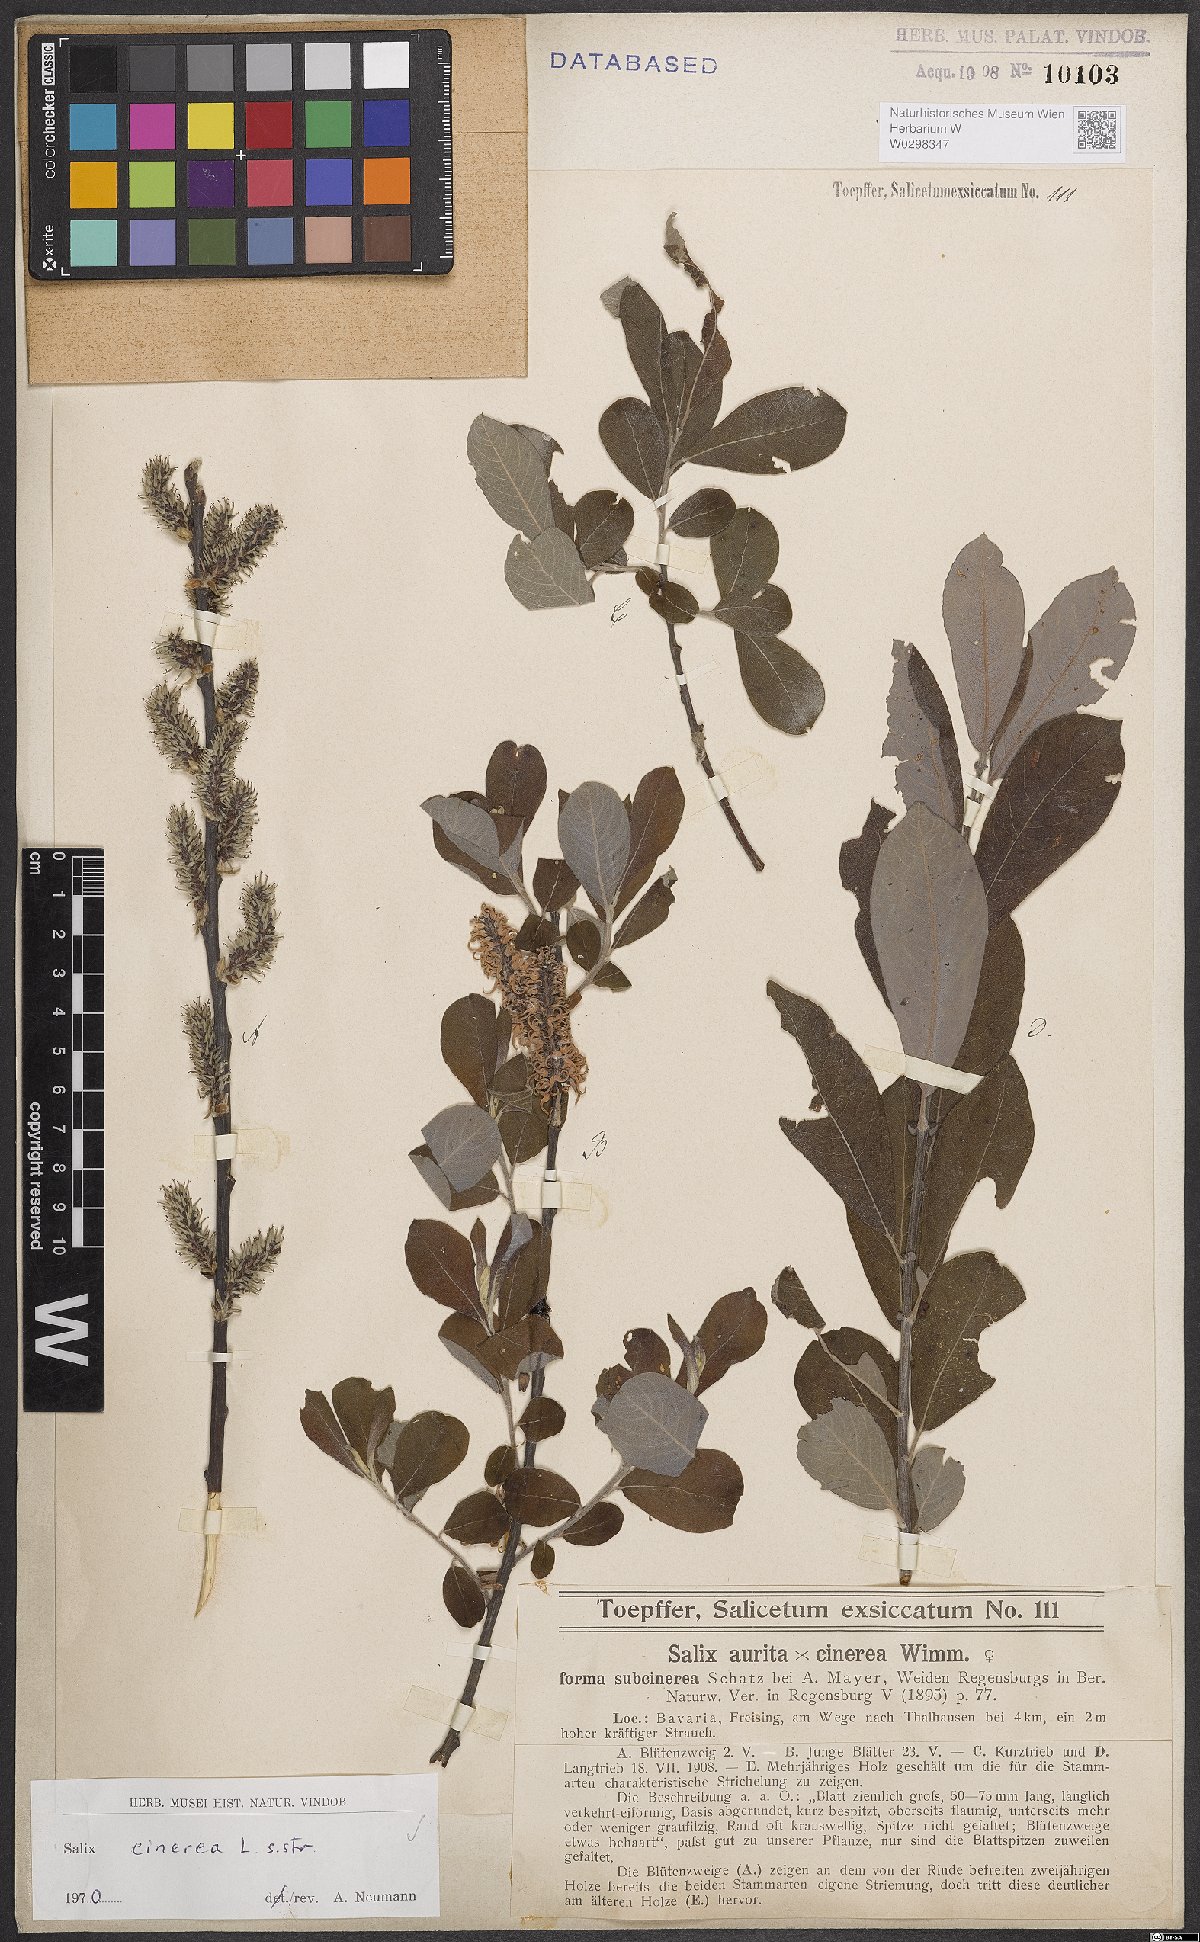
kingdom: Plantae
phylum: Tracheophyta
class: Magnoliopsida
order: Malpighiales
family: Salicaceae
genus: Salix
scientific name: Salix cinerea
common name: Common sallow
